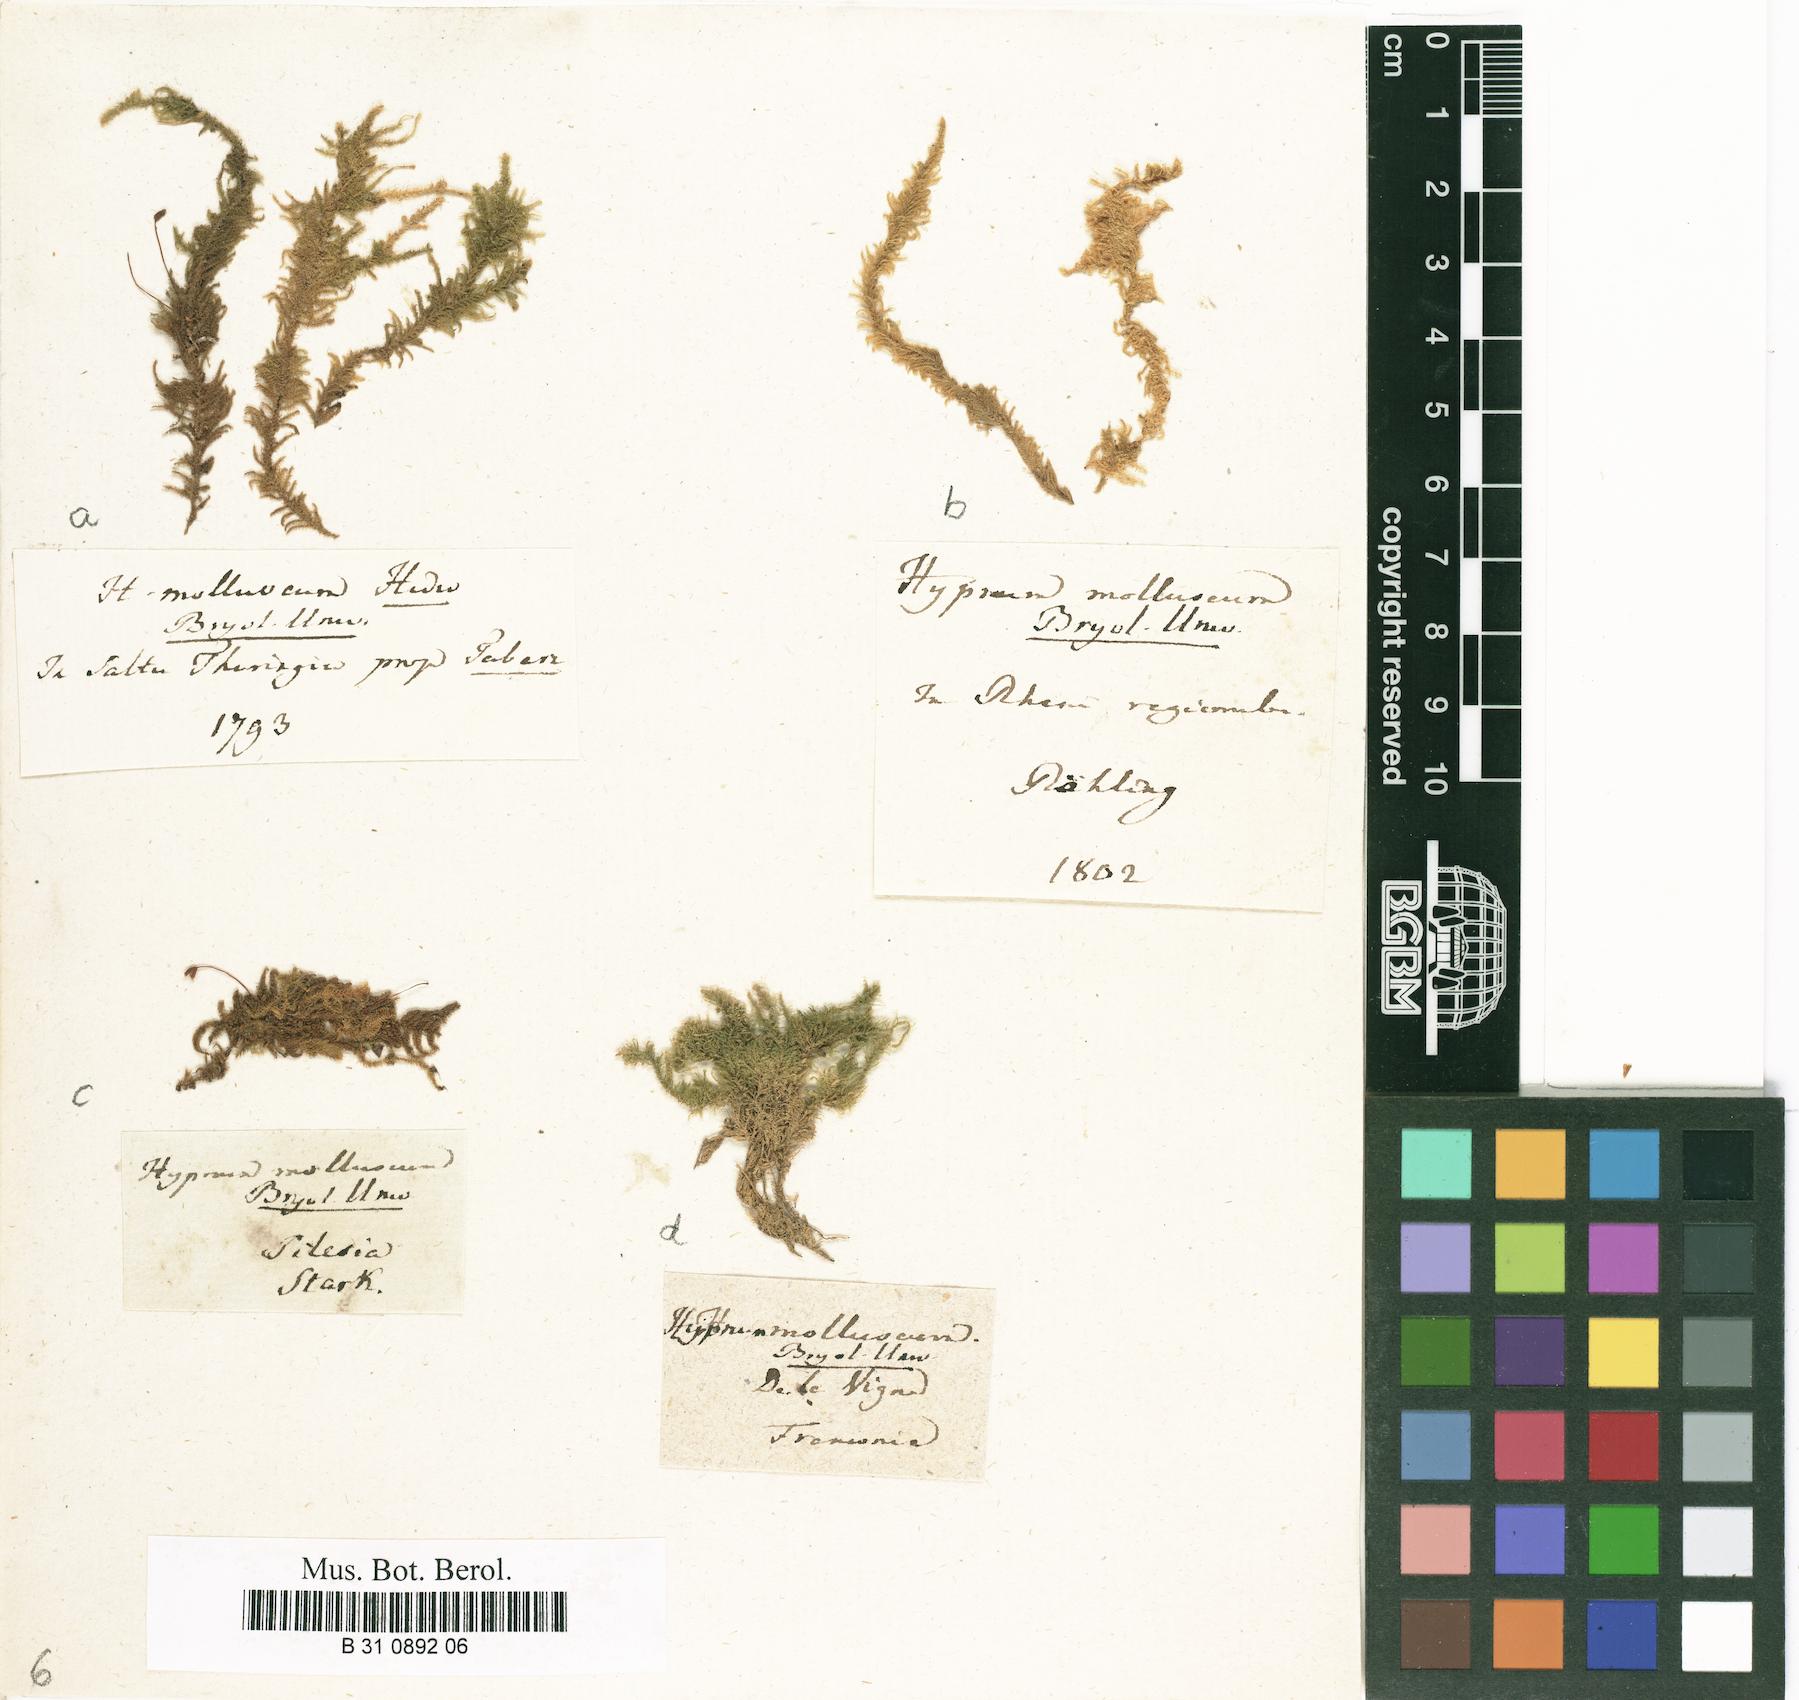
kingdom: Plantae
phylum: Bryophyta
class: Bryopsida
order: Hypnales
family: Myuriaceae
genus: Ctenidium
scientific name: Ctenidium molluscum
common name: Chalk comb-moss
